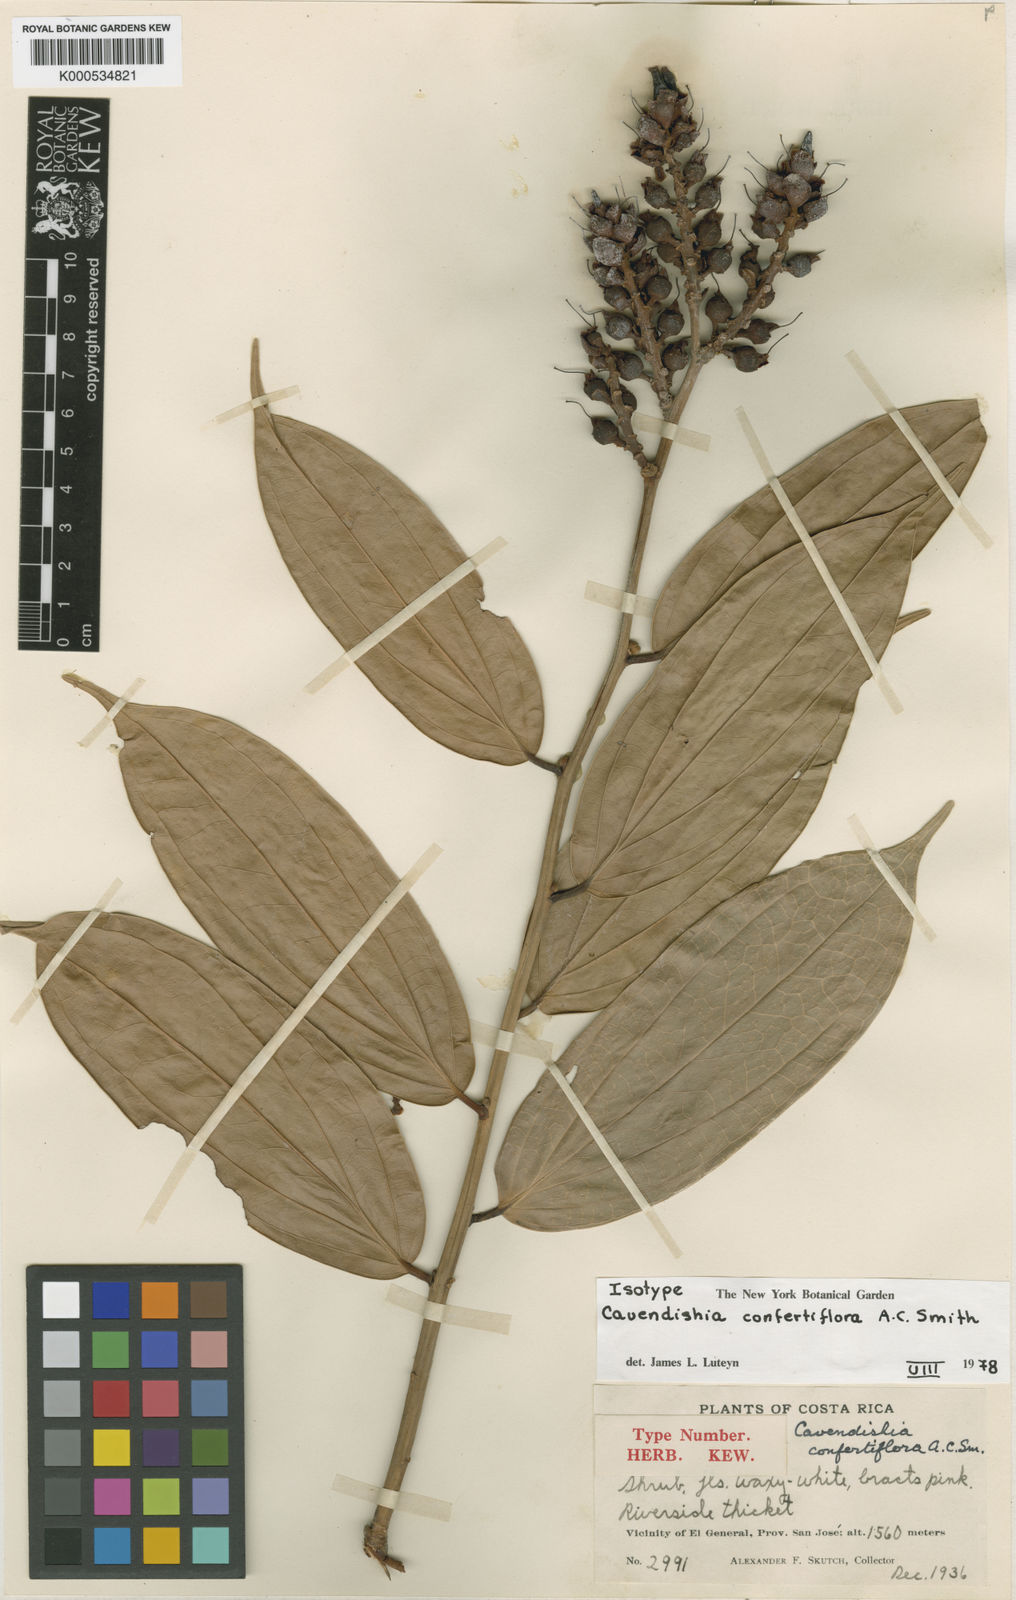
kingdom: Plantae
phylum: Tracheophyta
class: Magnoliopsida
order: Ericales
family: Ericaceae
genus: Cavendishia
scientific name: Cavendishia confertiflora
